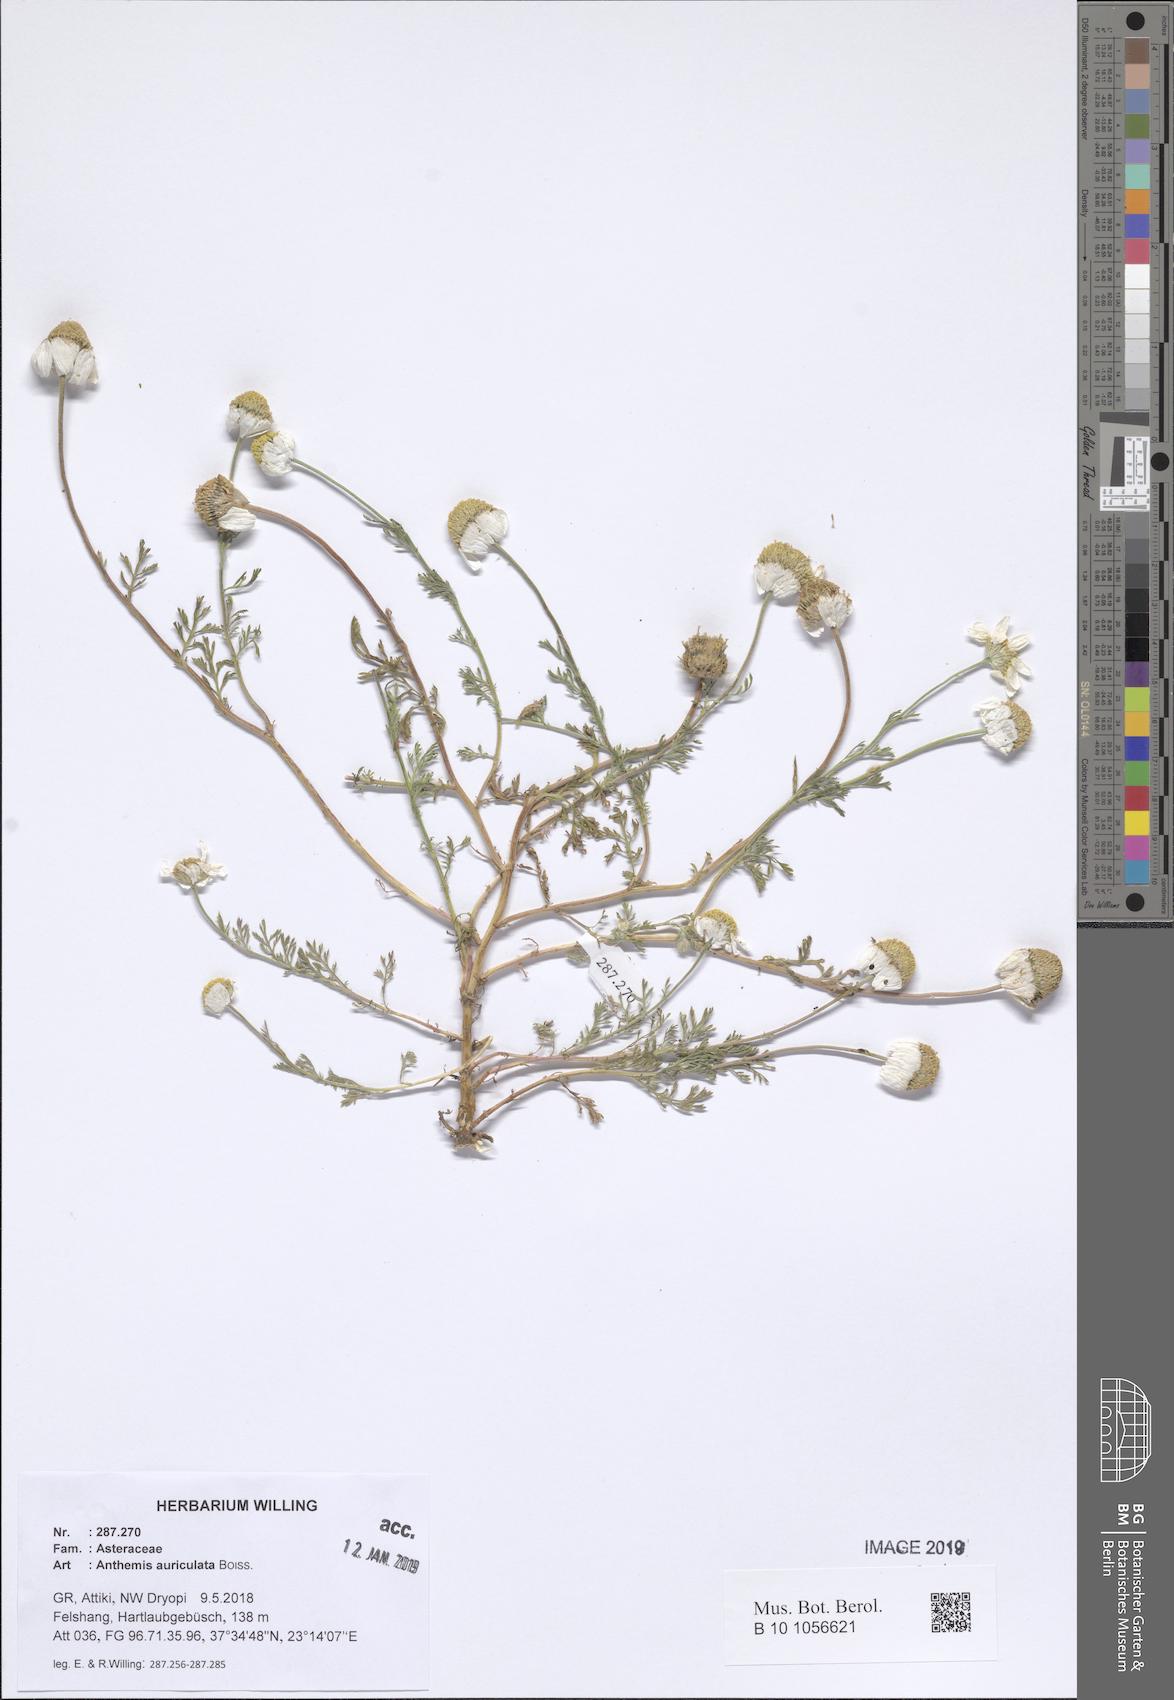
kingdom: Plantae
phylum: Tracheophyta
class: Magnoliopsida
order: Asterales
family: Asteraceae
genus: Anthemis
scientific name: Anthemis auriculata
